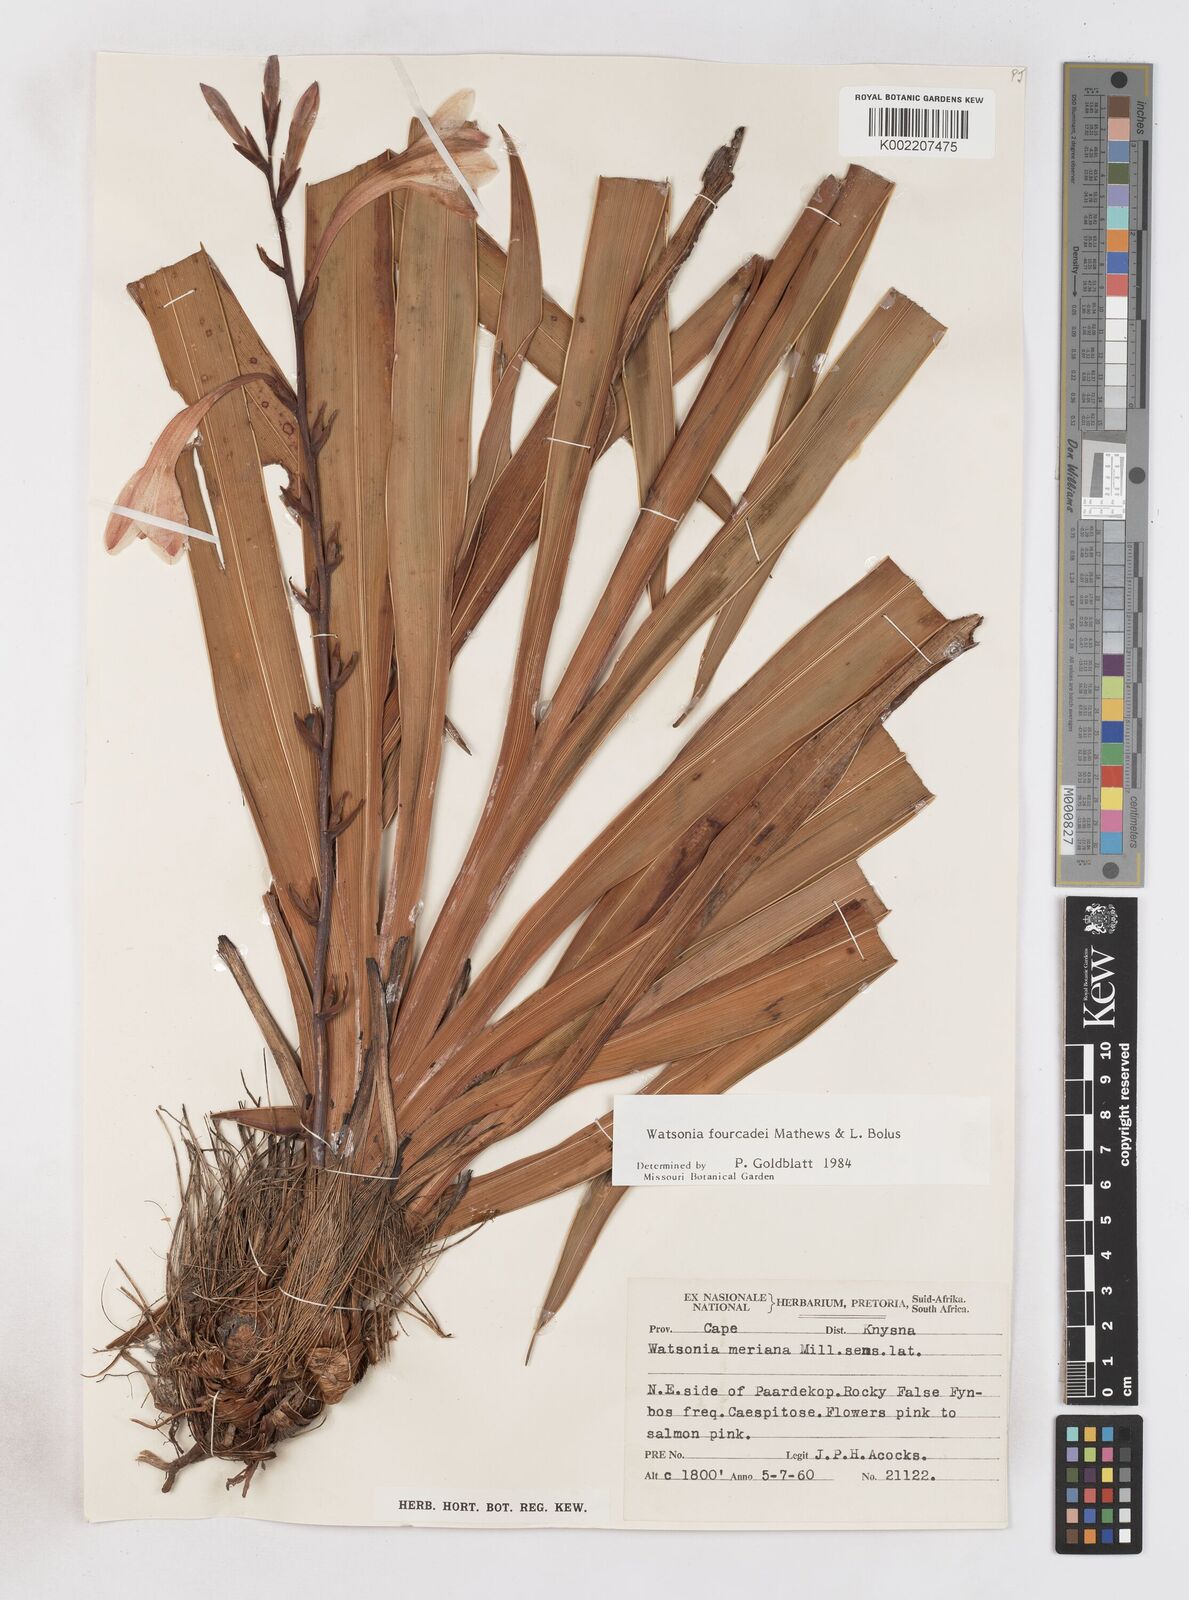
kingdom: Plantae
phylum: Tracheophyta
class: Liliopsida
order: Asparagales
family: Iridaceae
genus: Watsonia
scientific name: Watsonia fourcadei
